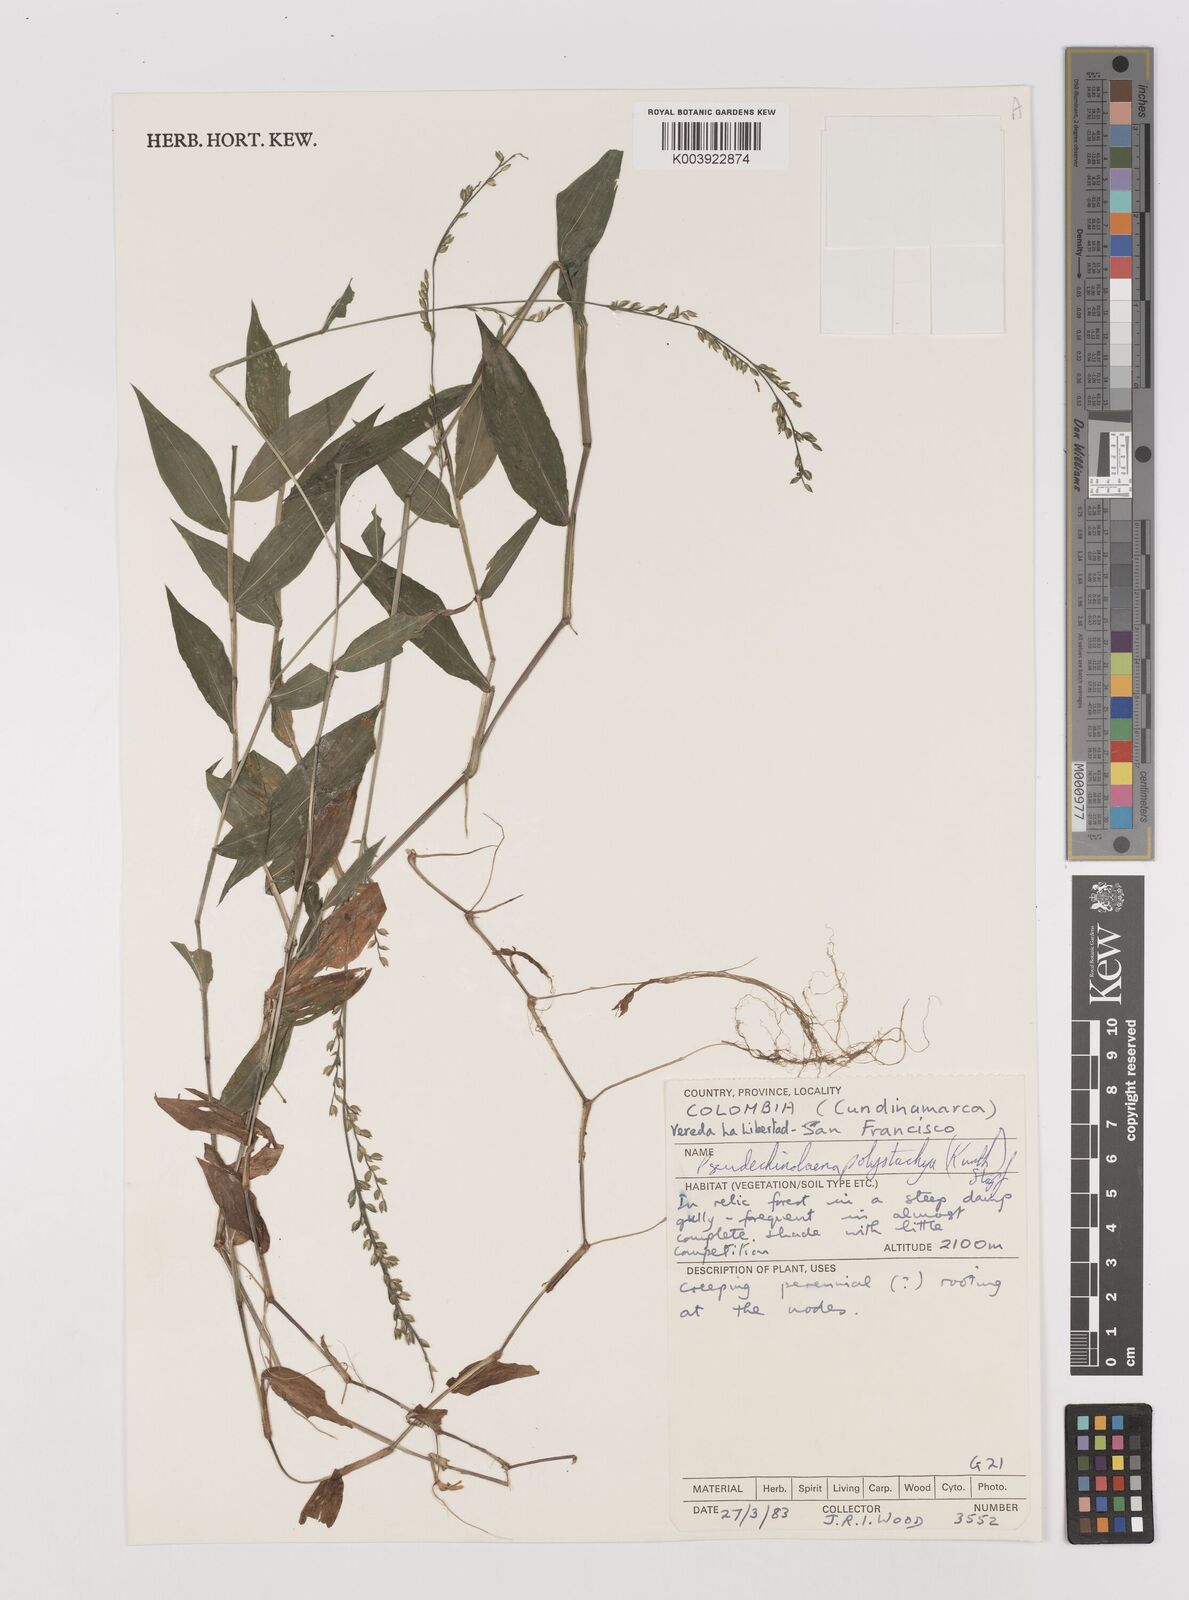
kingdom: Plantae
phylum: Tracheophyta
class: Liliopsida
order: Poales
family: Poaceae
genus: Pseudechinolaena
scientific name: Pseudechinolaena polystachya
